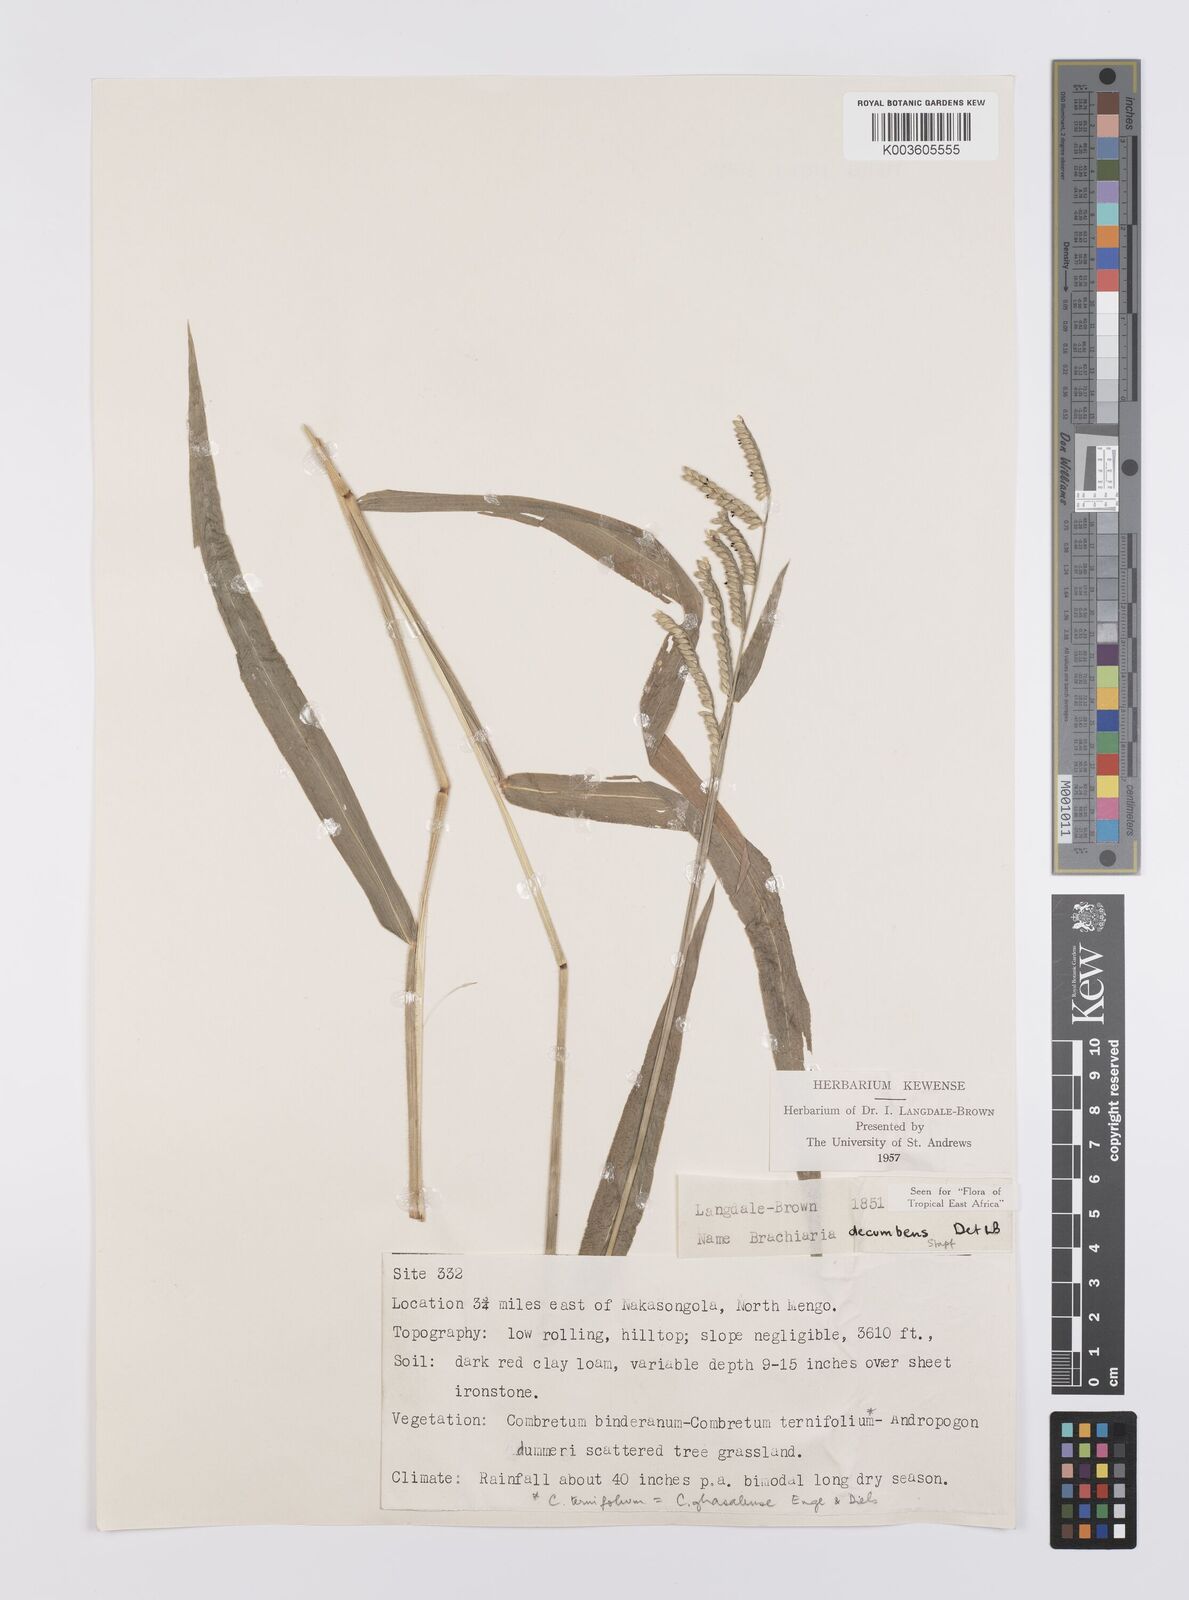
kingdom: Plantae
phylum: Tracheophyta
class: Liliopsida
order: Poales
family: Poaceae
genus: Urochloa
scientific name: Urochloa eminii
